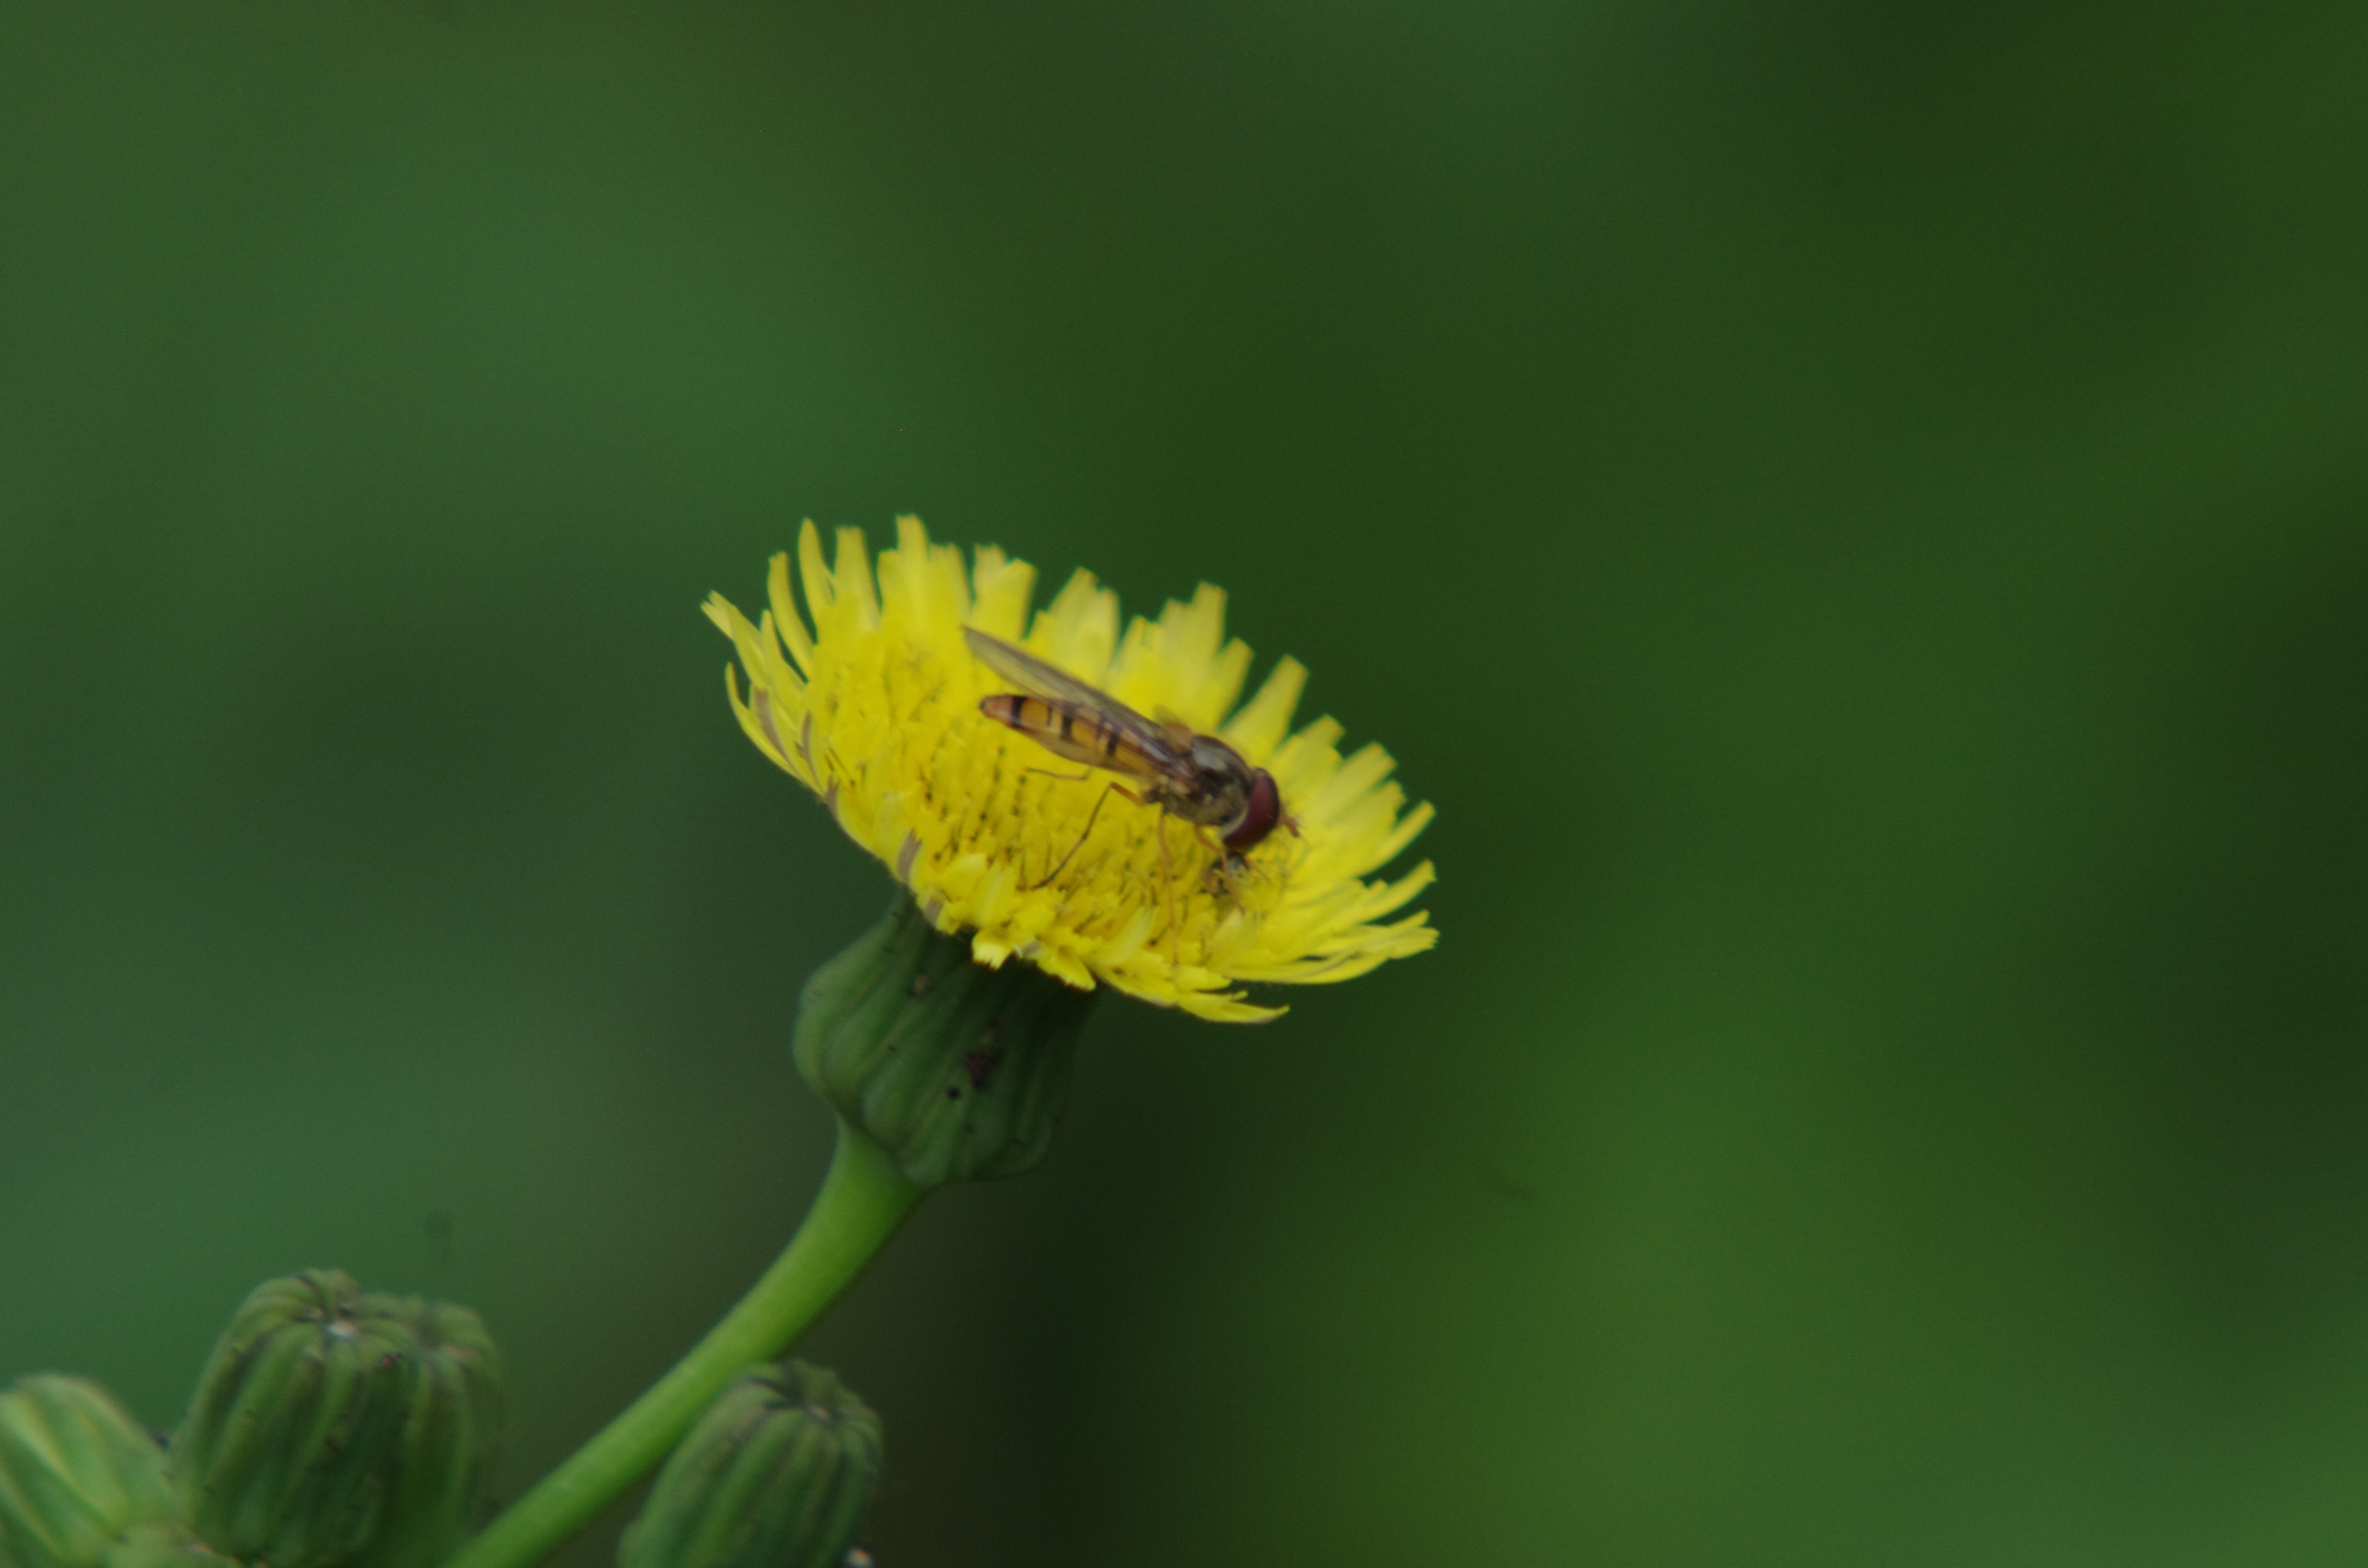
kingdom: Animalia
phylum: Arthropoda
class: Insecta
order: Diptera
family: Syrphidae
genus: Episyrphus
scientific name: Episyrphus balteatus
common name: Dobbeltbåndet svirreflue
